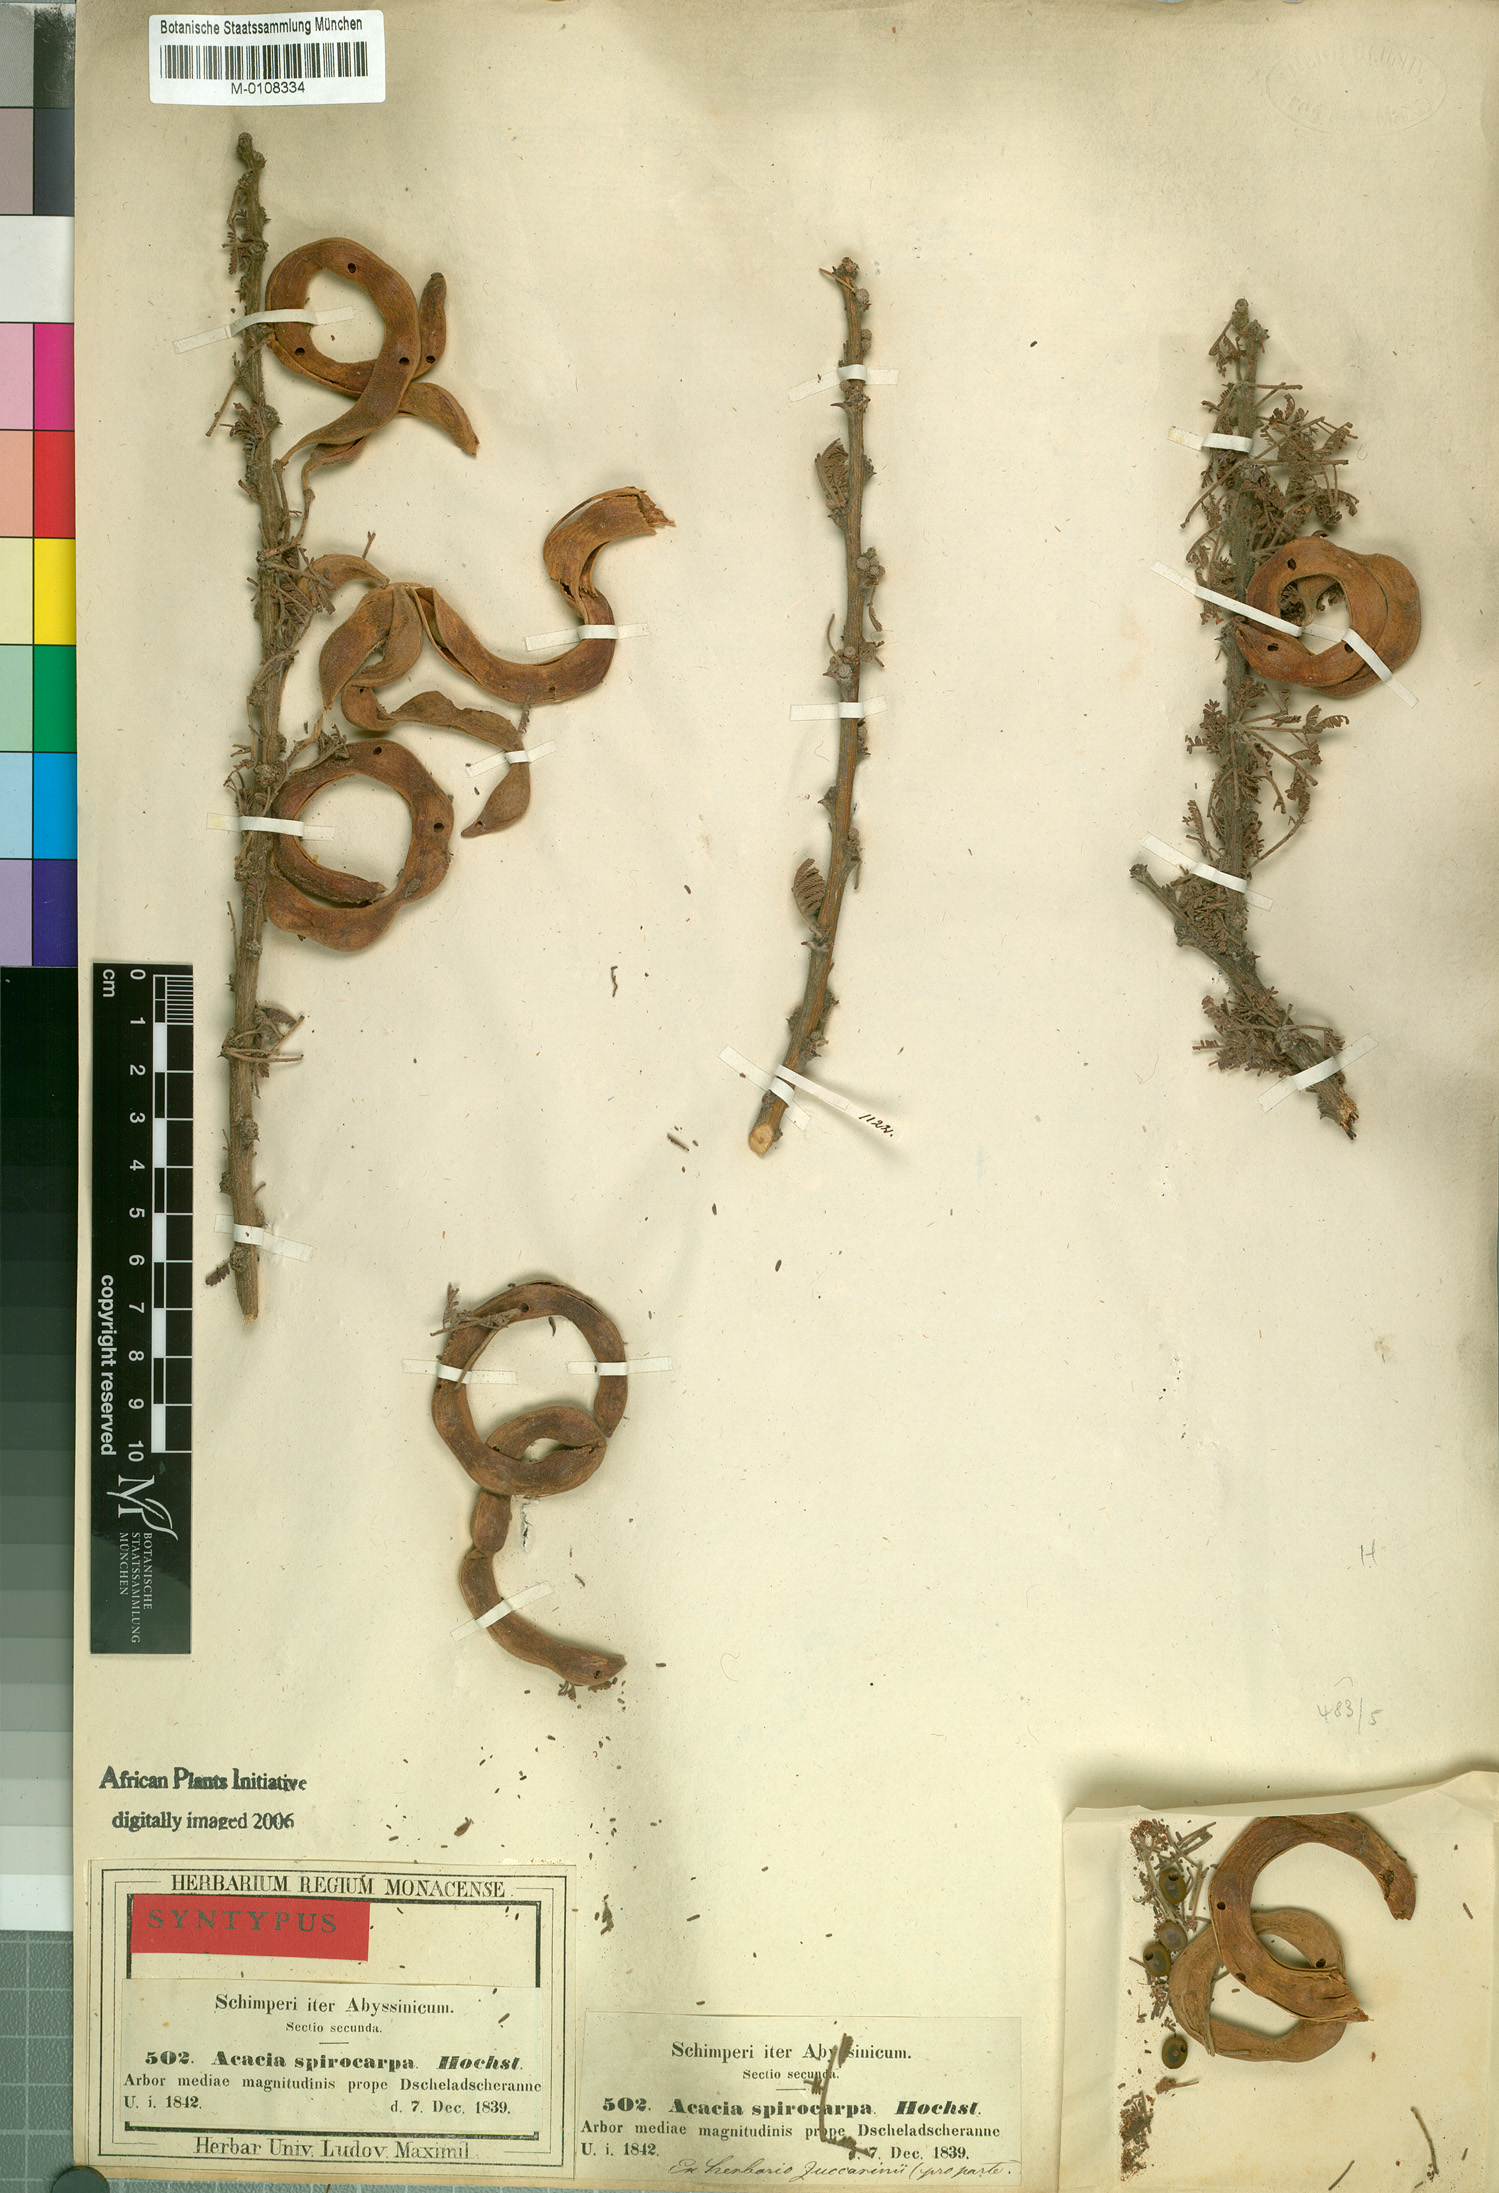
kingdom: Plantae
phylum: Tracheophyta
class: Magnoliopsida
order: Fabales
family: Fabaceae
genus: Vachellia
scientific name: Vachellia tortilis
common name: Umbrella thorn acacia
